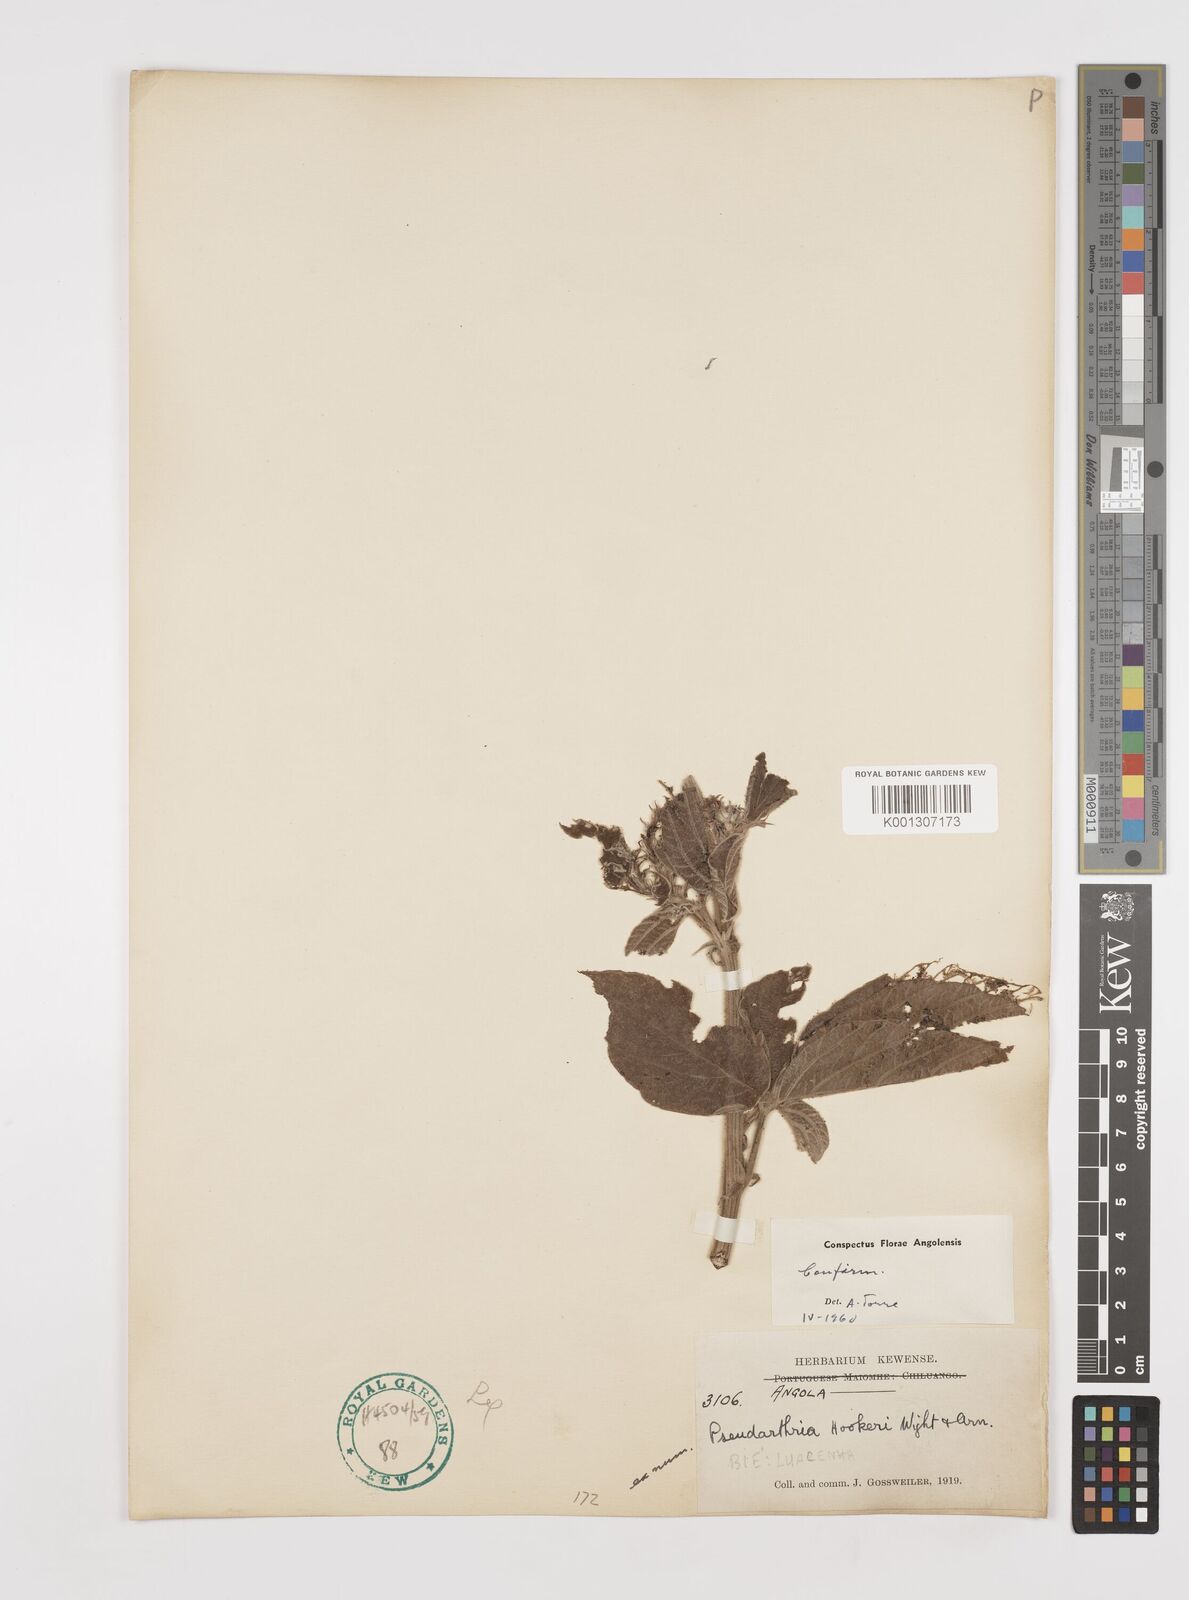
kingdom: Plantae
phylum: Tracheophyta
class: Magnoliopsida
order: Fabales
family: Fabaceae
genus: Pseudarthria
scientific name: Pseudarthria hookeri
